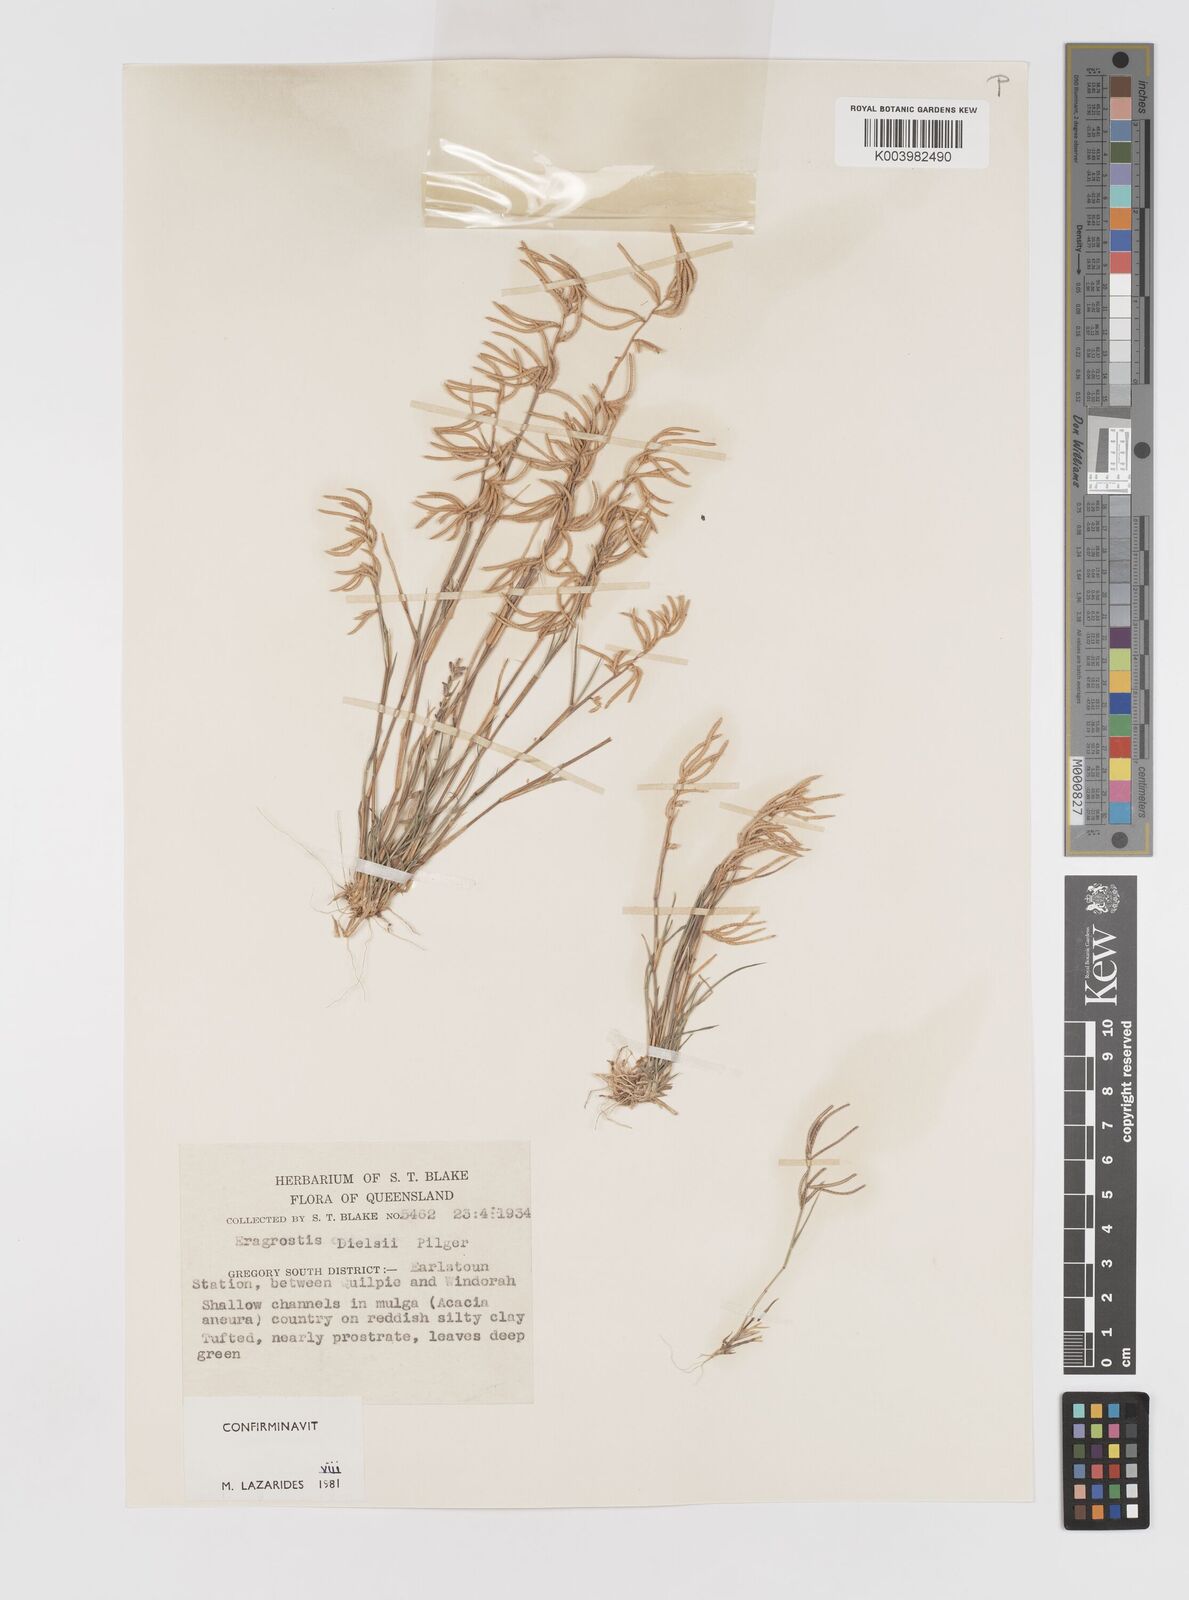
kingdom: Plantae
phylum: Tracheophyta
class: Liliopsida
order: Poales
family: Poaceae
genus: Eragrostis
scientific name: Eragrostis dielsii
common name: Lovegrass
